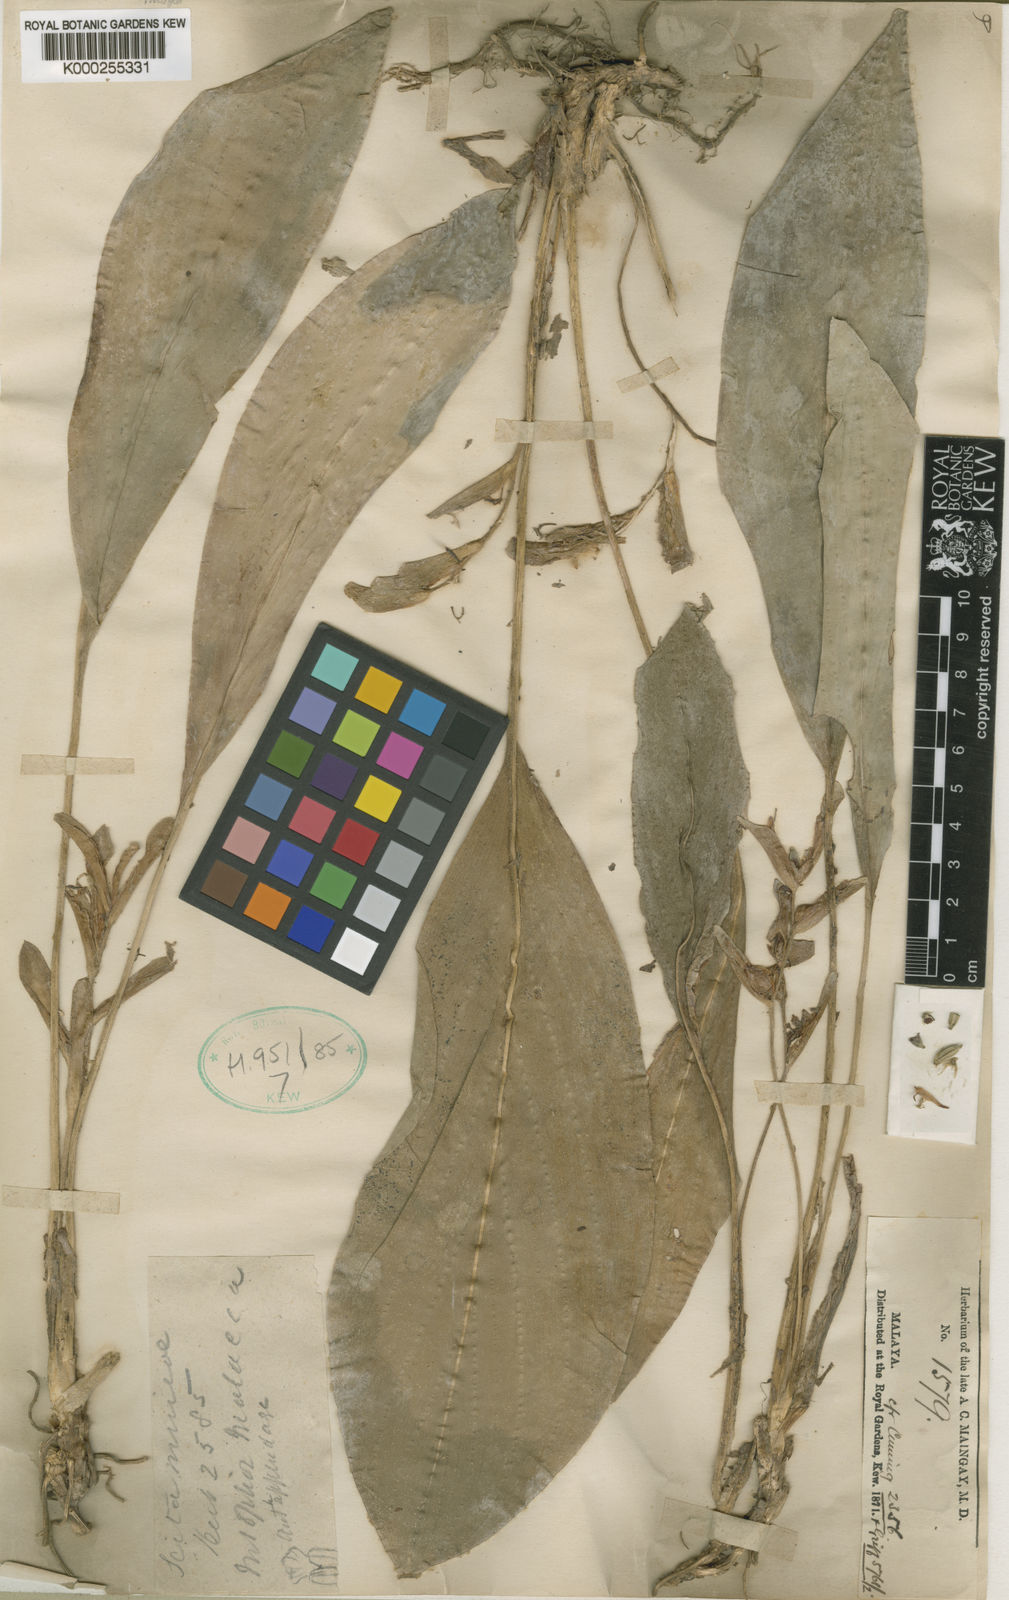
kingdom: Plantae
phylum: Tracheophyta
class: Liliopsida
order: Zingiberales
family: Zingiberaceae
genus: Scaphochlamys
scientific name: Scaphochlamys malaccana
